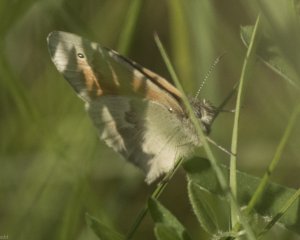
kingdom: Animalia
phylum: Arthropoda
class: Insecta
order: Lepidoptera
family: Nymphalidae
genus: Coenonympha
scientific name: Coenonympha tullia
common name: Large Heath
